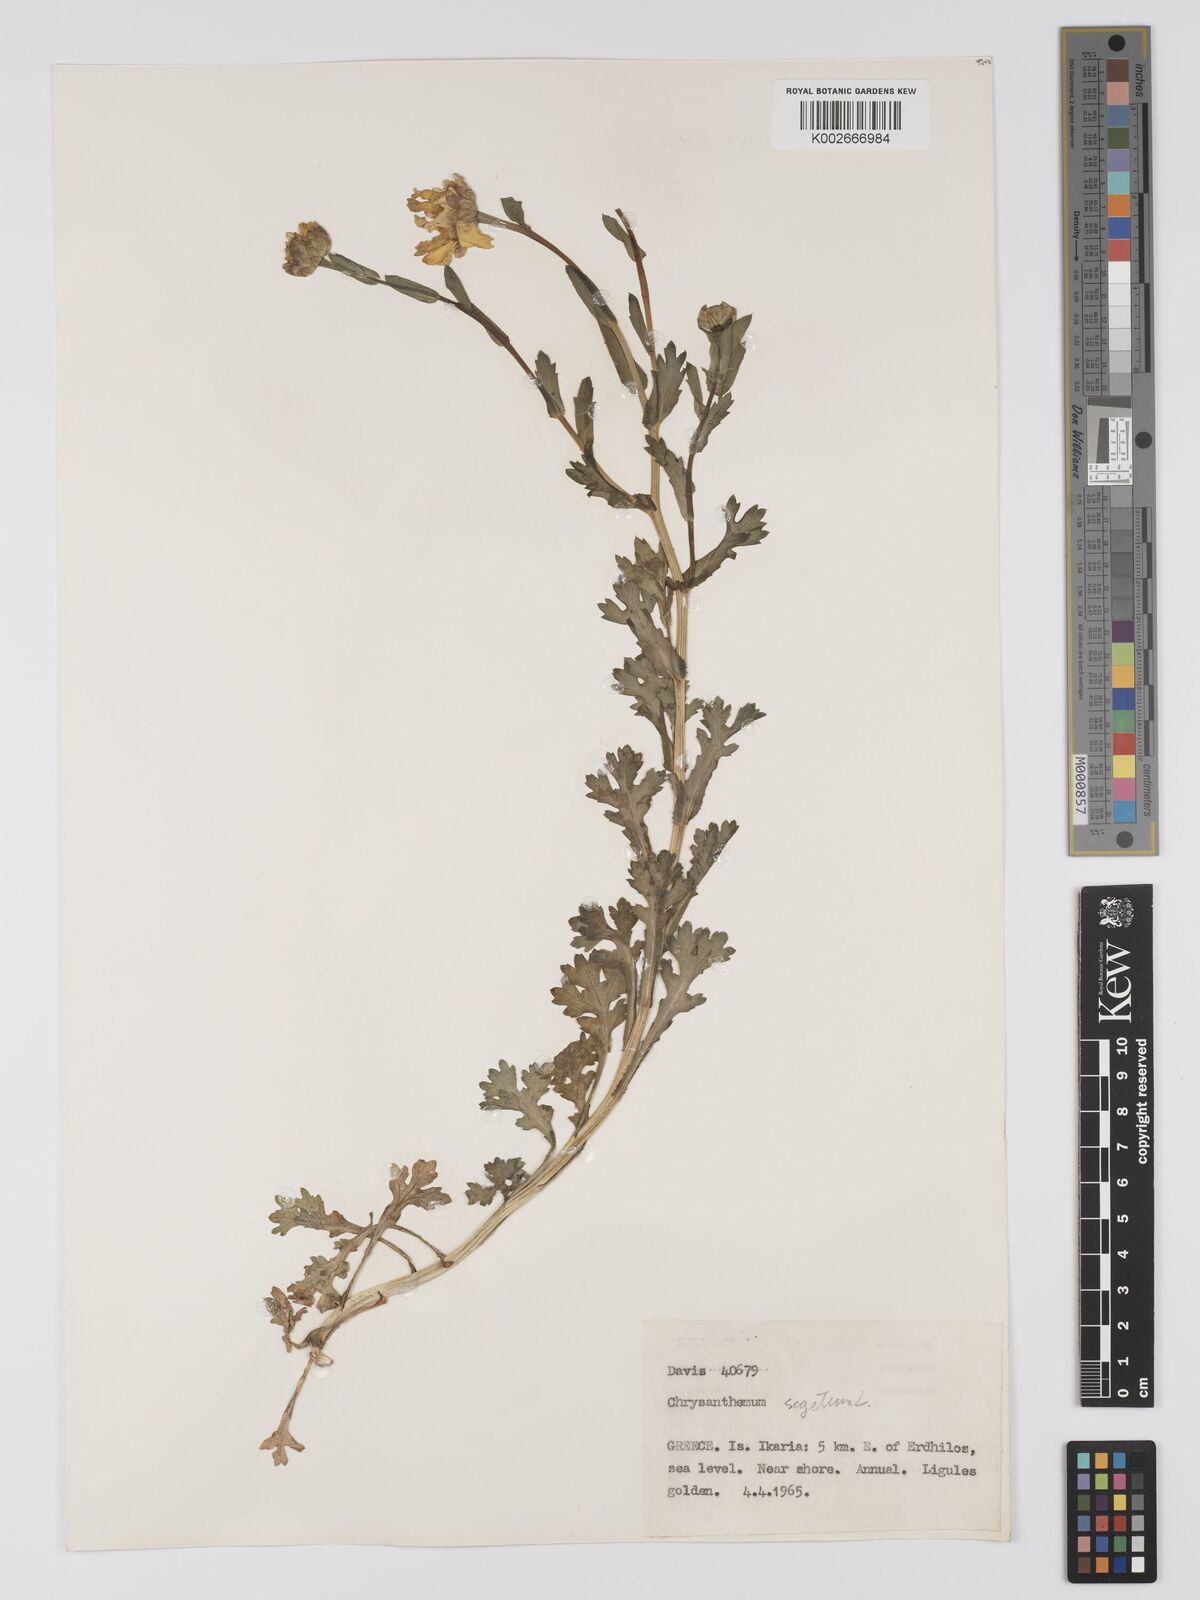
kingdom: Plantae
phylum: Tracheophyta
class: Magnoliopsida
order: Asterales
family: Asteraceae
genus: Glebionis
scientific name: Glebionis segetum
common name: Corndaisy
